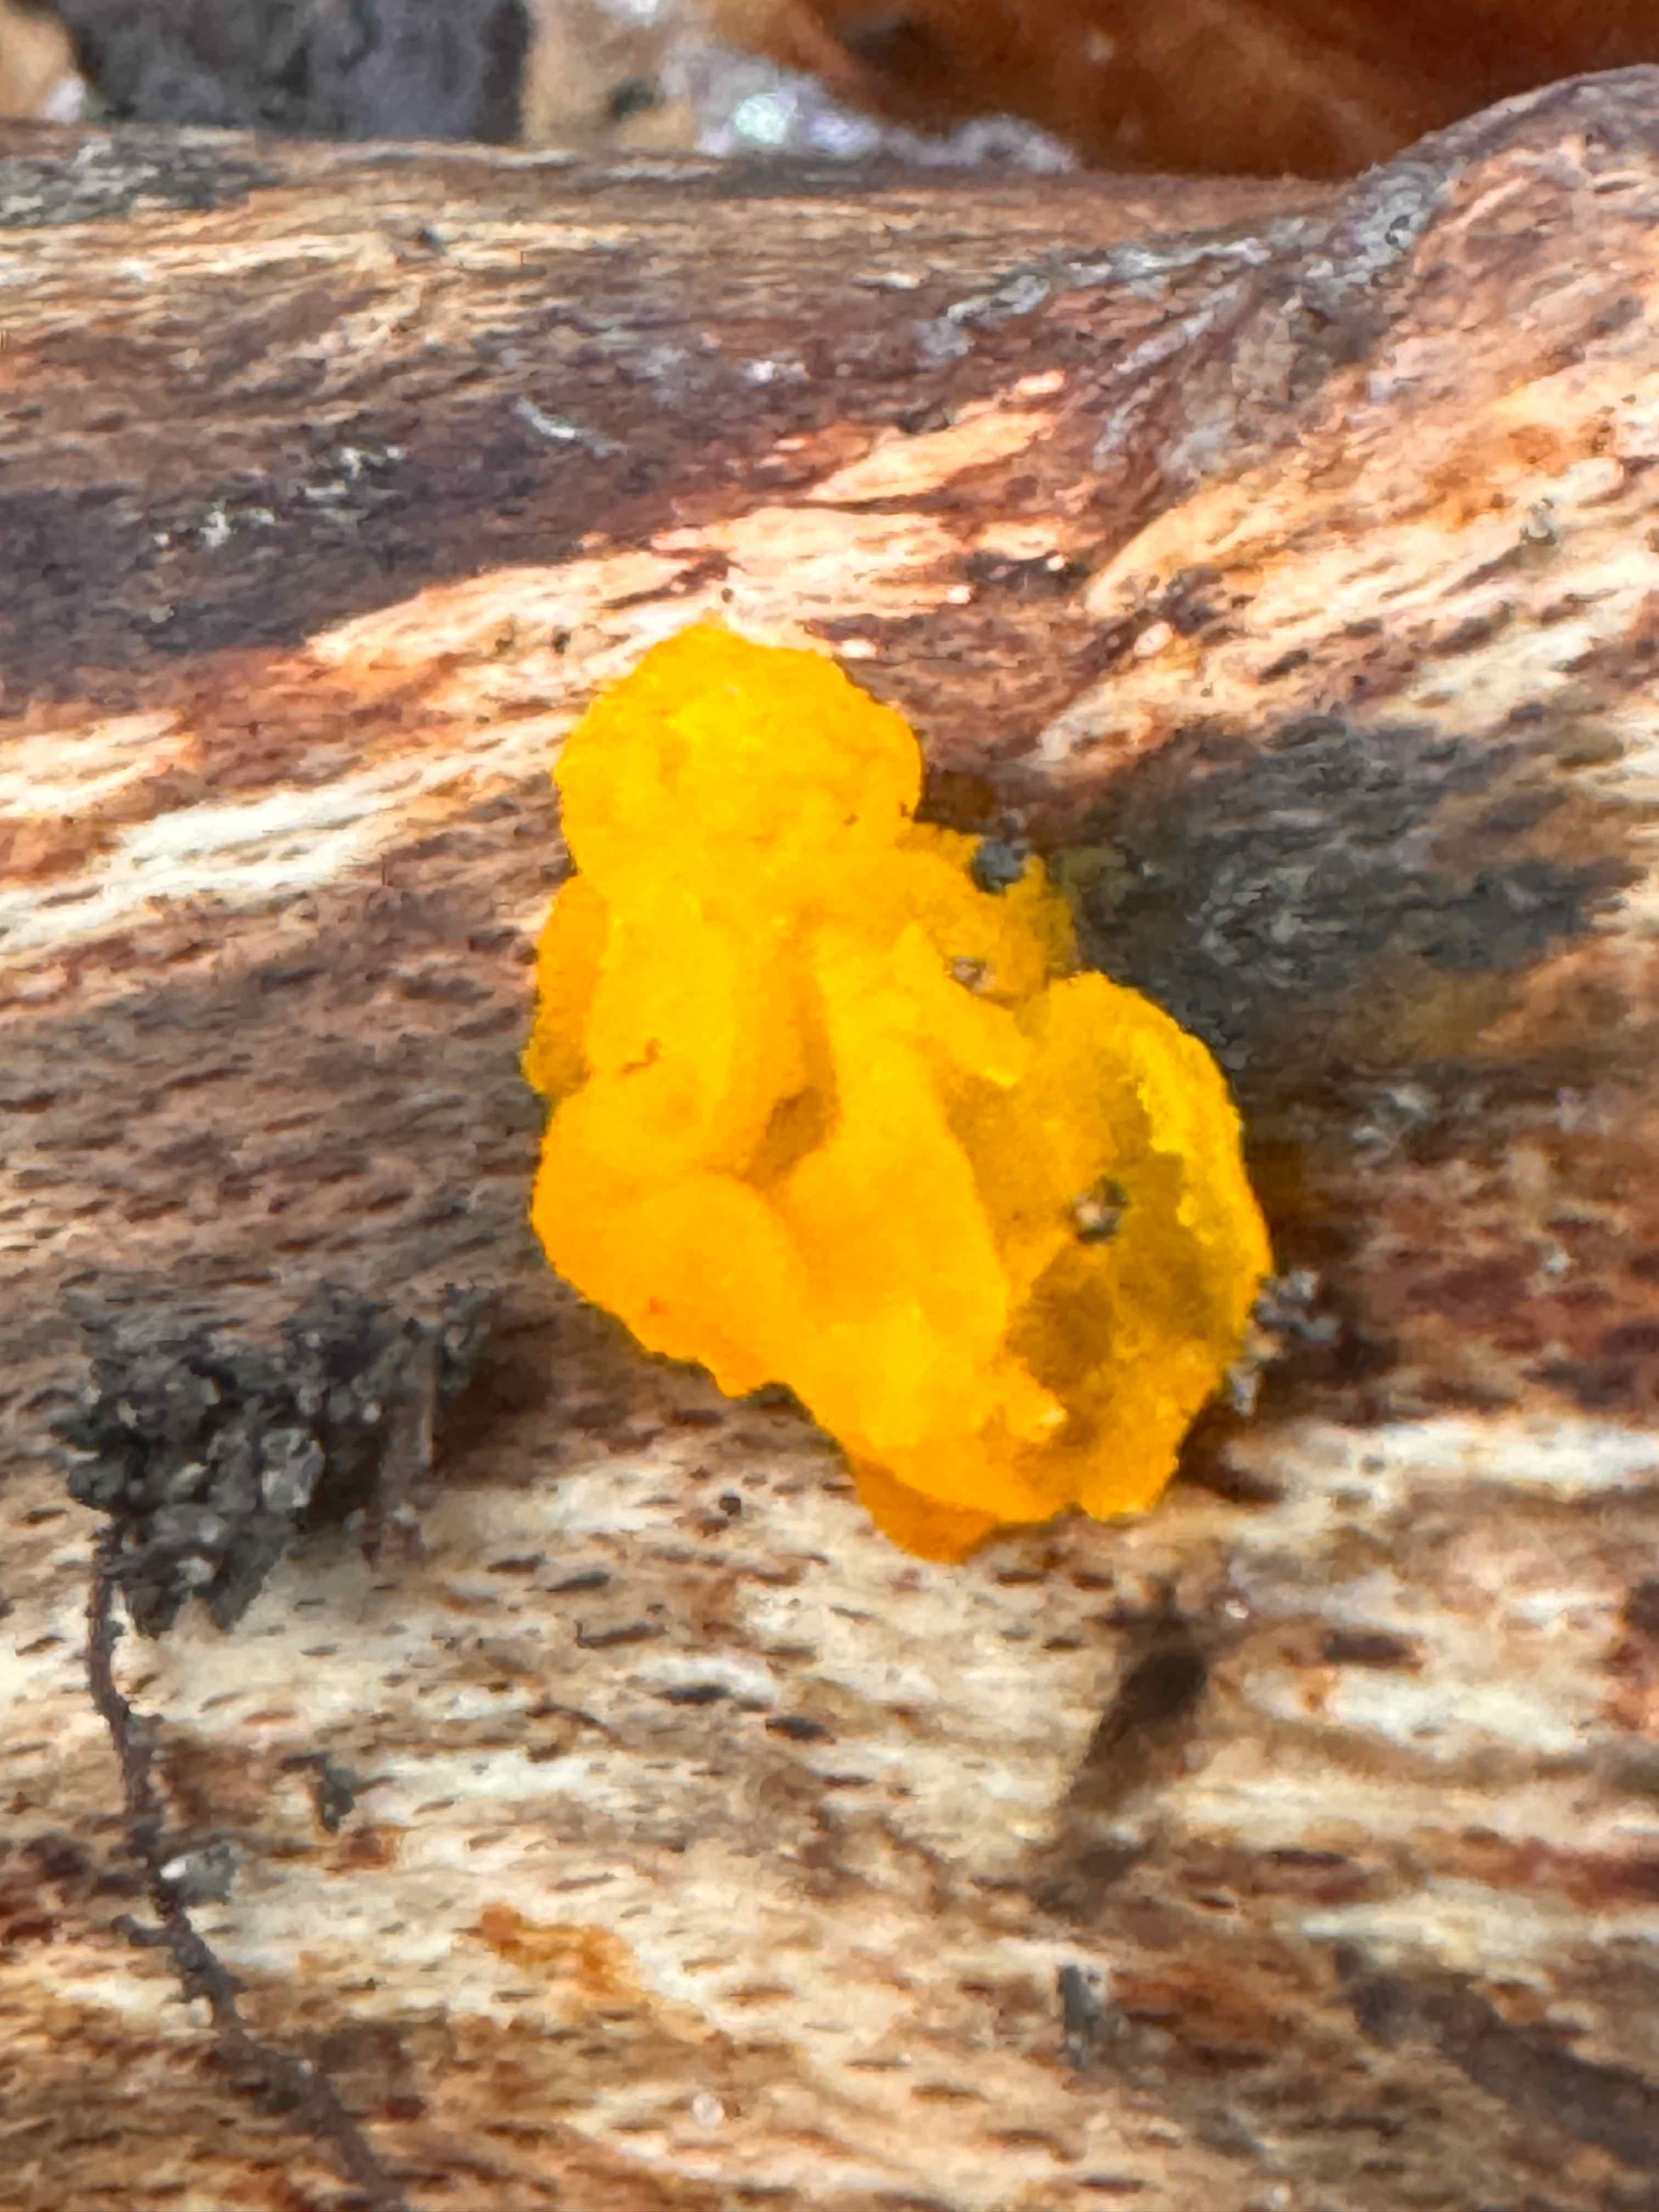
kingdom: Fungi
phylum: Basidiomycota
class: Tremellomycetes
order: Tremellales
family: Tremellaceae
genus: Tremella
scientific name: Tremella mesenterica
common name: gul bævresvamp
